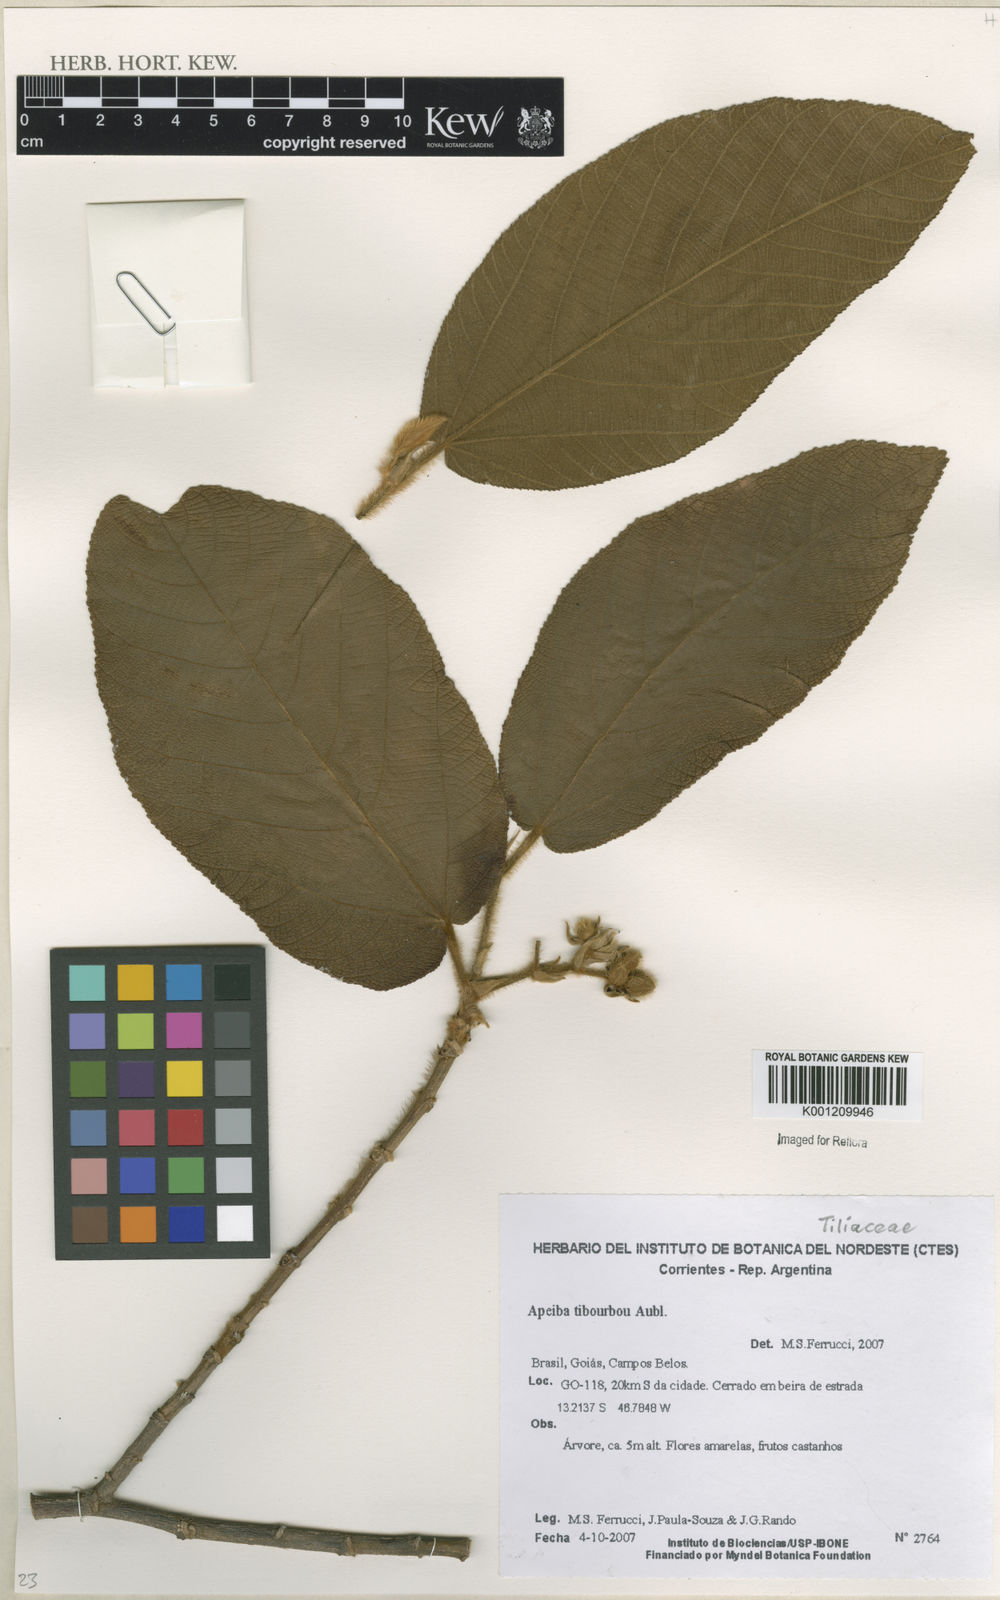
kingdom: Plantae
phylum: Tracheophyta
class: Magnoliopsida
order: Malvales
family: Malvaceae
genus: Apeiba
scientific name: Apeiba tibourbou
